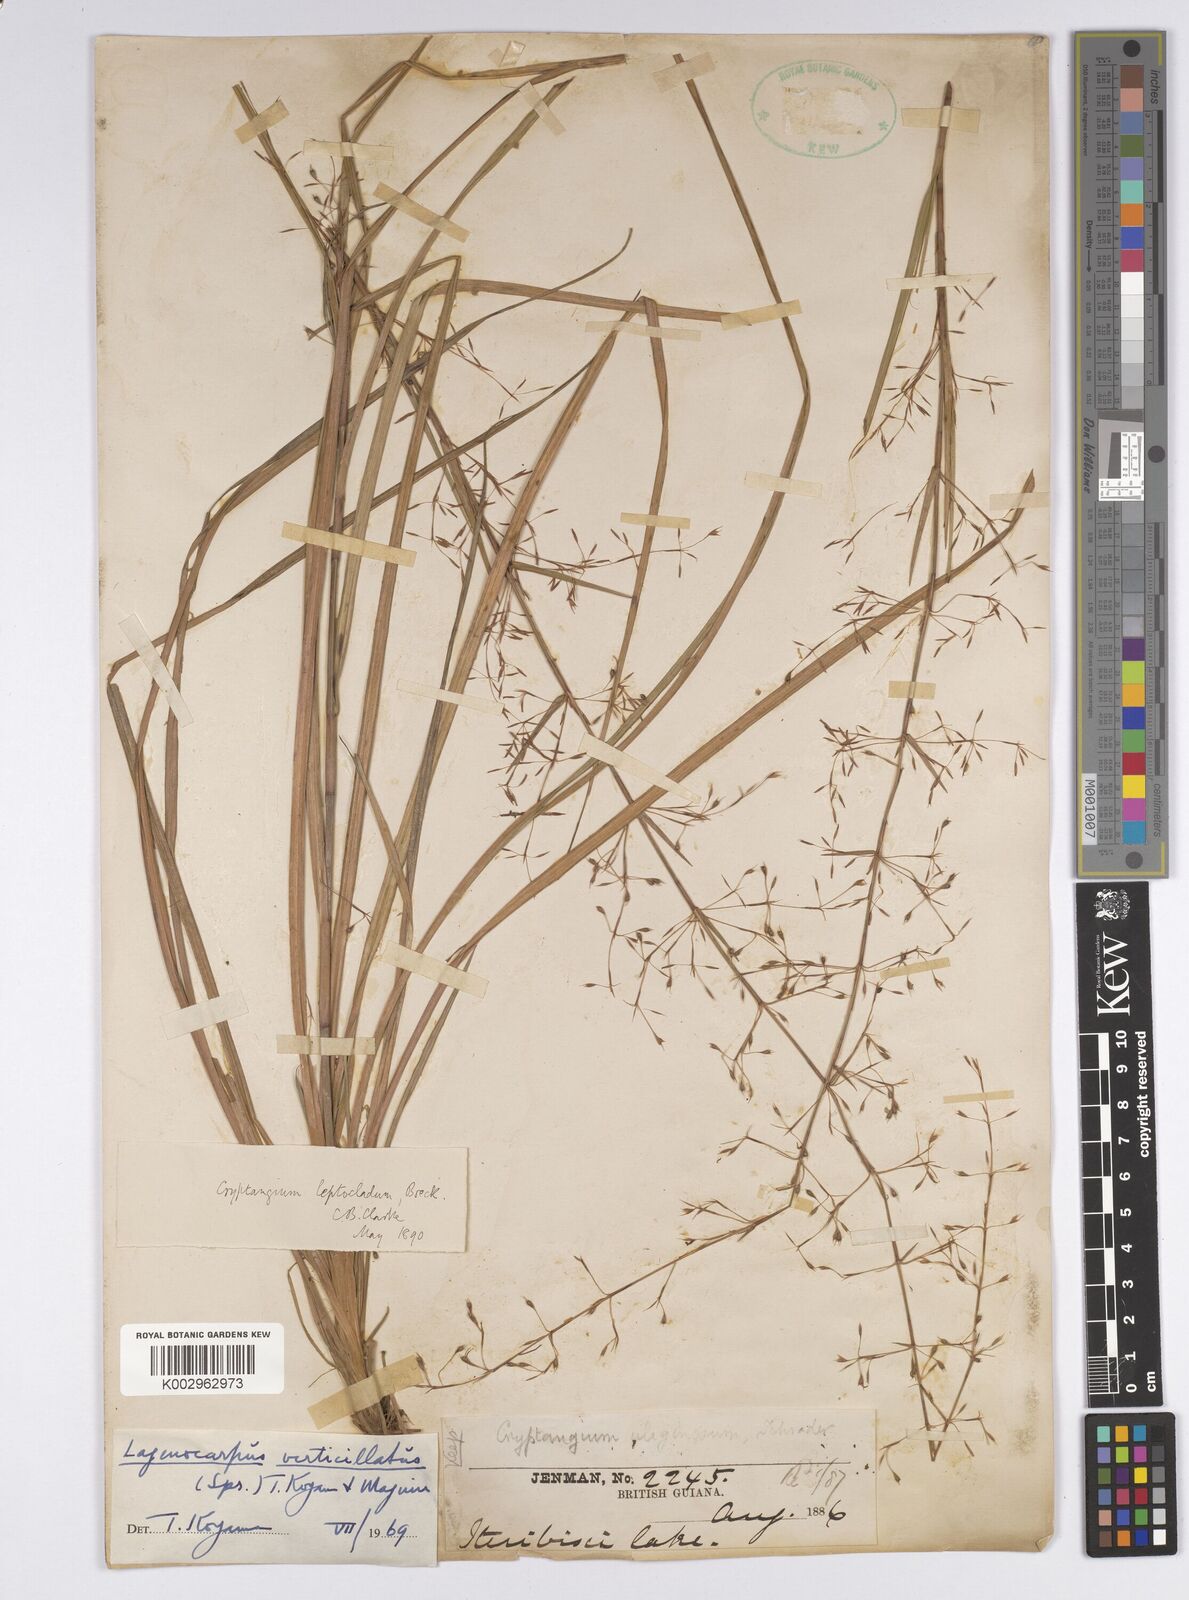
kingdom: Plantae
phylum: Tracheophyta
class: Liliopsida
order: Poales
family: Cyperaceae
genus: Cryptangium
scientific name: Cryptangium verticillatum
